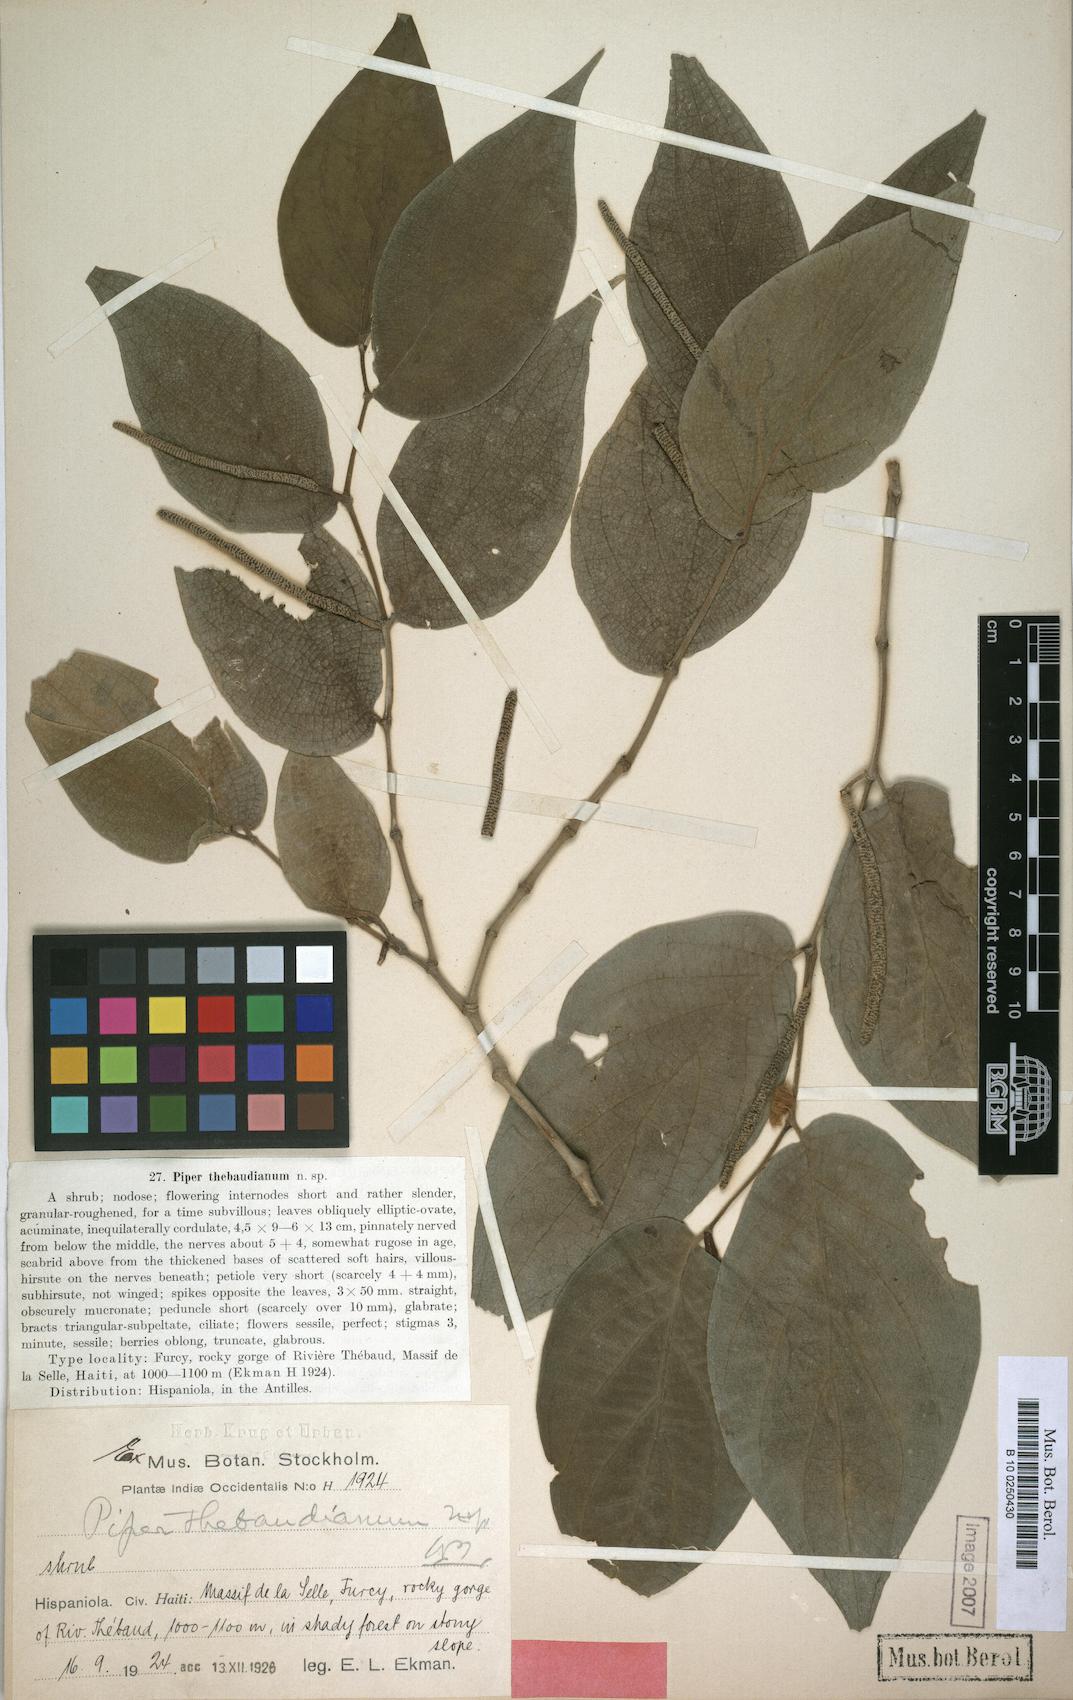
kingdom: Plantae
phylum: Tracheophyta
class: Magnoliopsida
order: Piperales
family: Piperaceae
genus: Piper
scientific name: Piper hispidum
